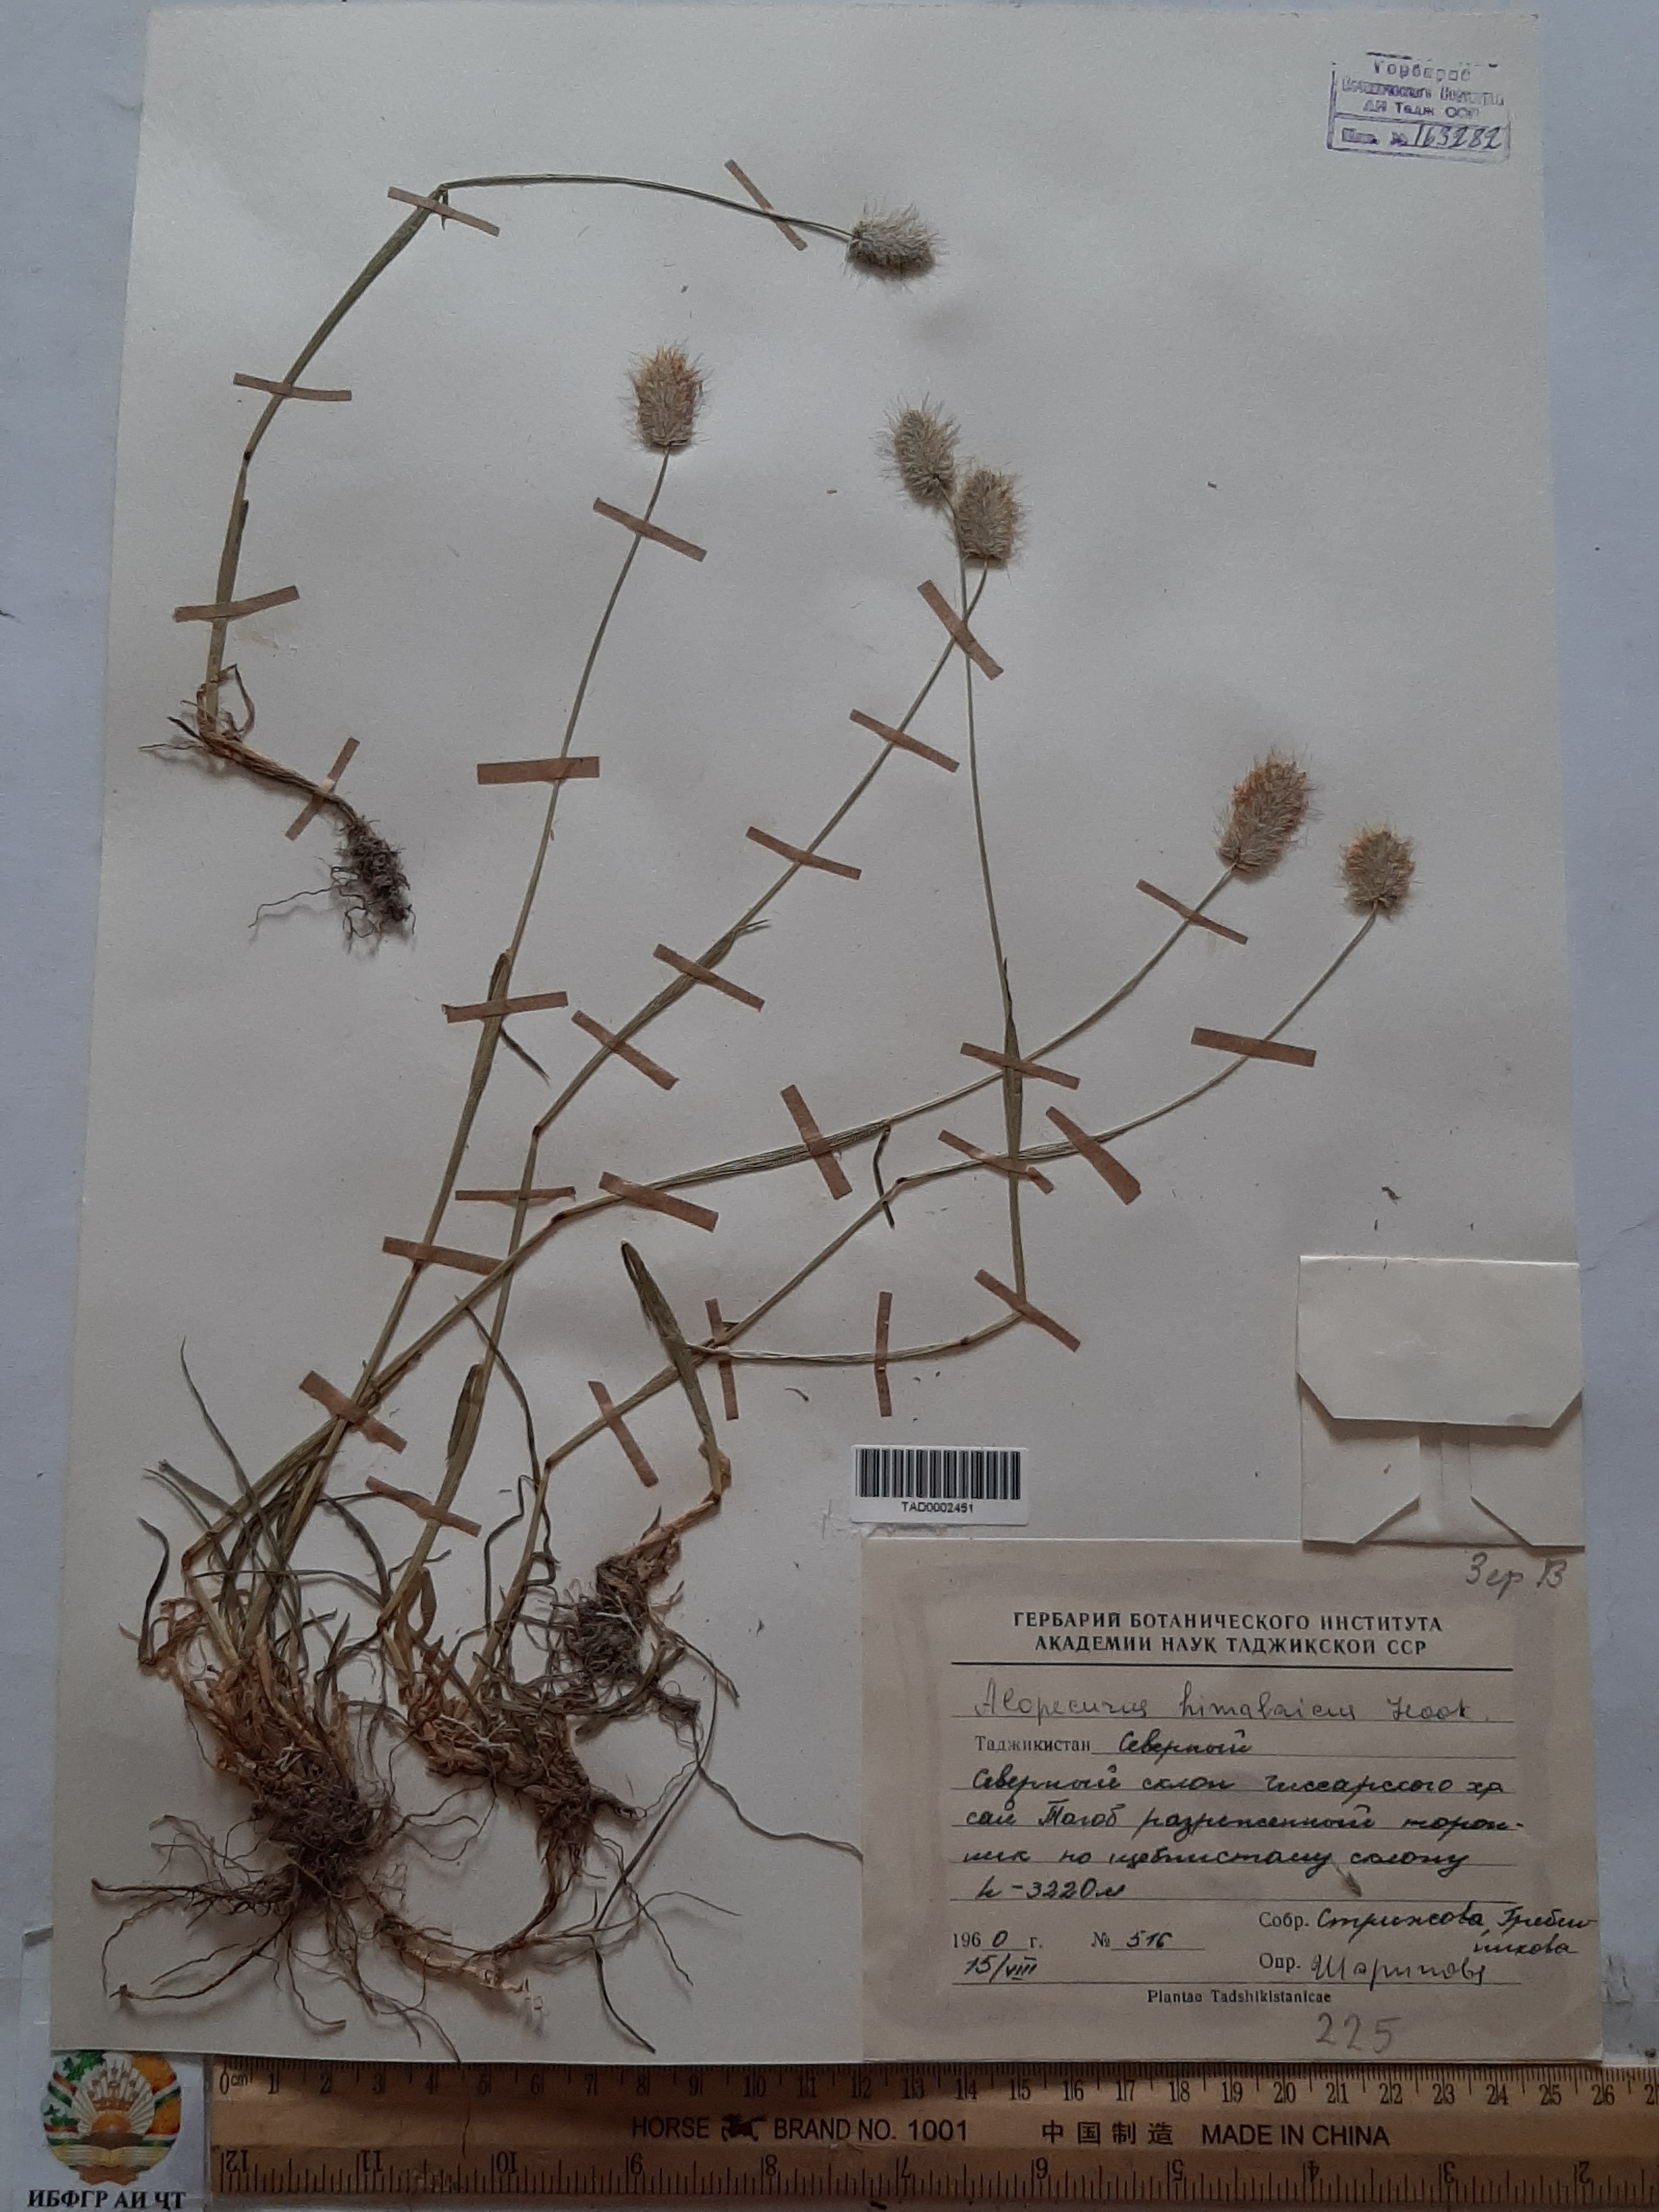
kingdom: Plantae
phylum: Tracheophyta
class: Liliopsida
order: Poales
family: Poaceae
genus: Alopecurus
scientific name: Alopecurus himalaicus
